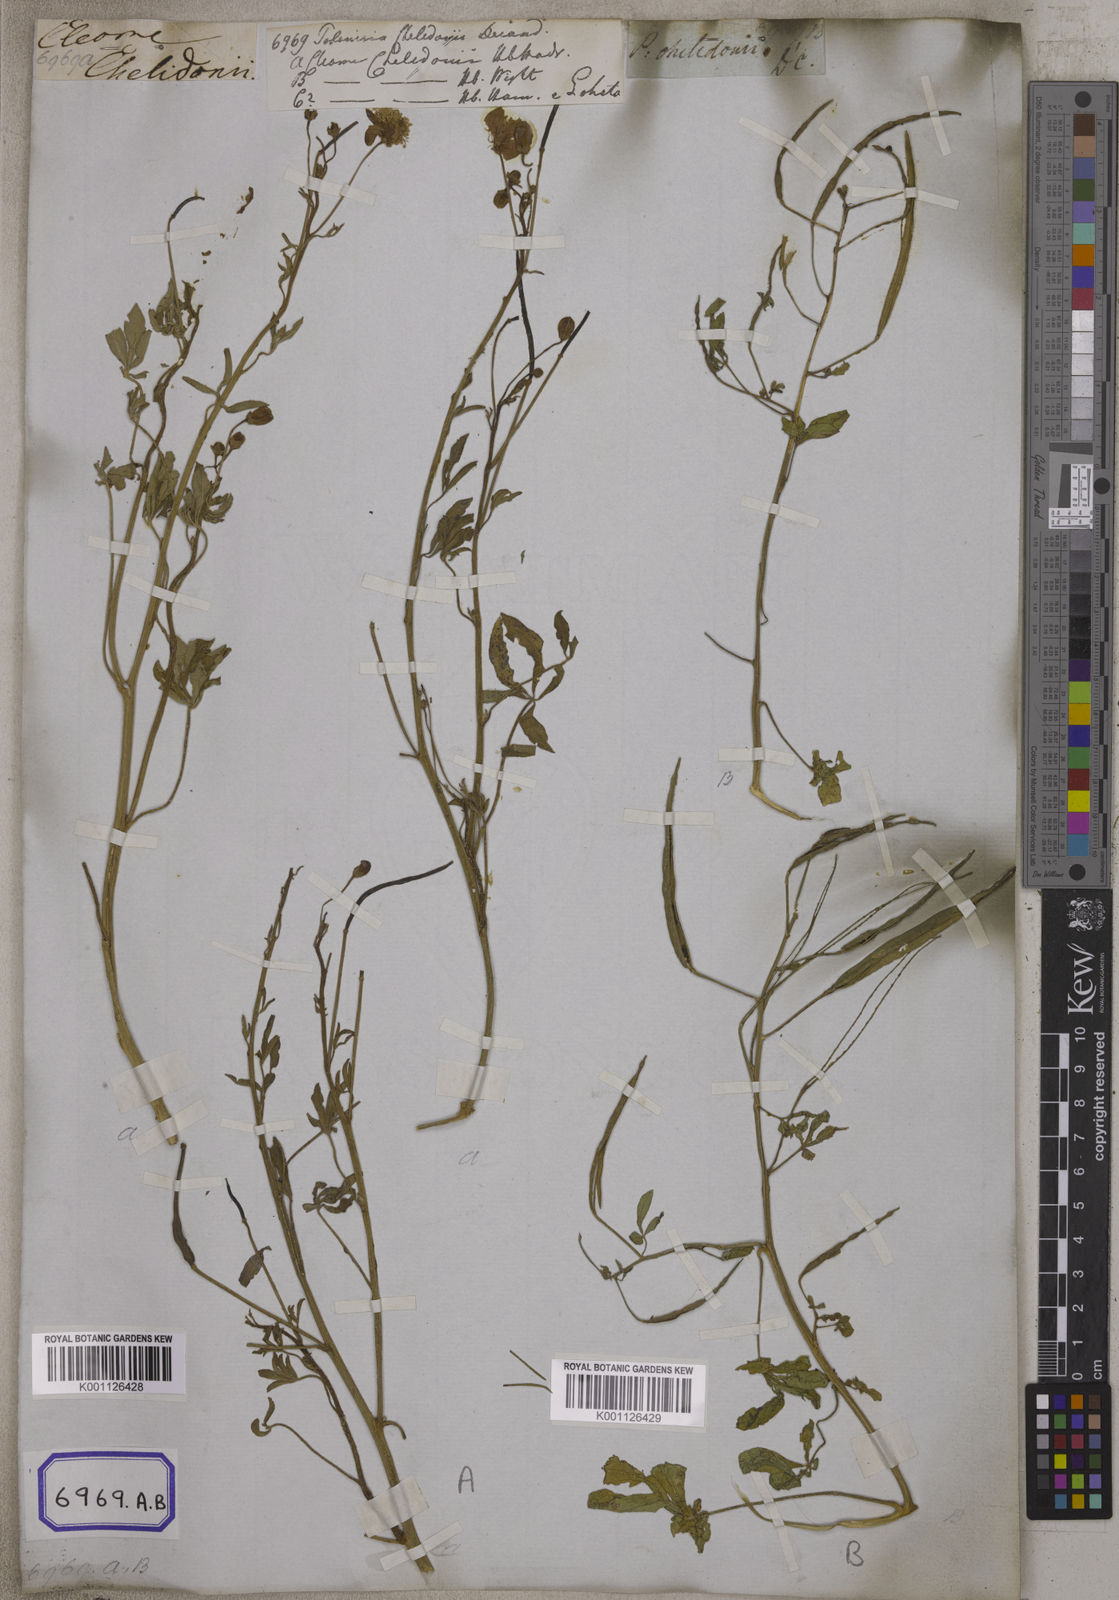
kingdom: Plantae
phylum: Tracheophyta
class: Magnoliopsida
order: Brassicales
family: Cleomaceae
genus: Corynandra
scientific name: Corynandra chelidonii
